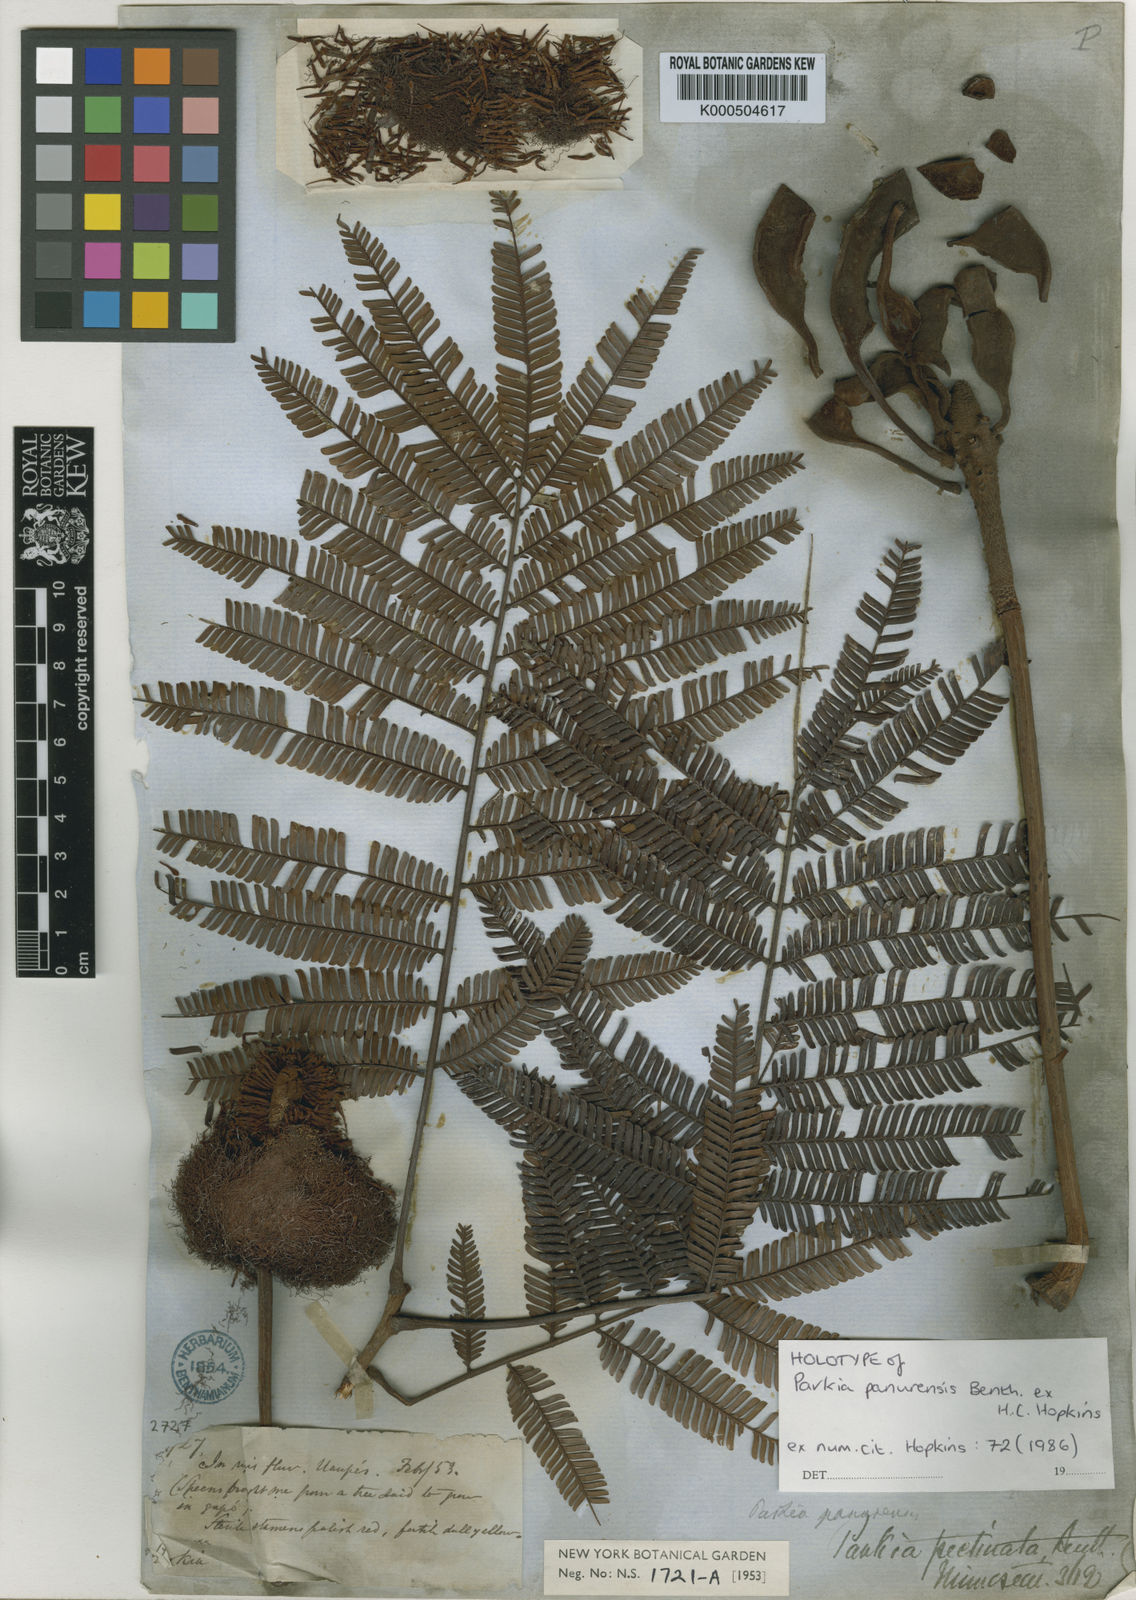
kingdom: Plantae
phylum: Tracheophyta
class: Magnoliopsida
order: Fabales
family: Fabaceae
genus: Parkia
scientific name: Parkia pectinata
